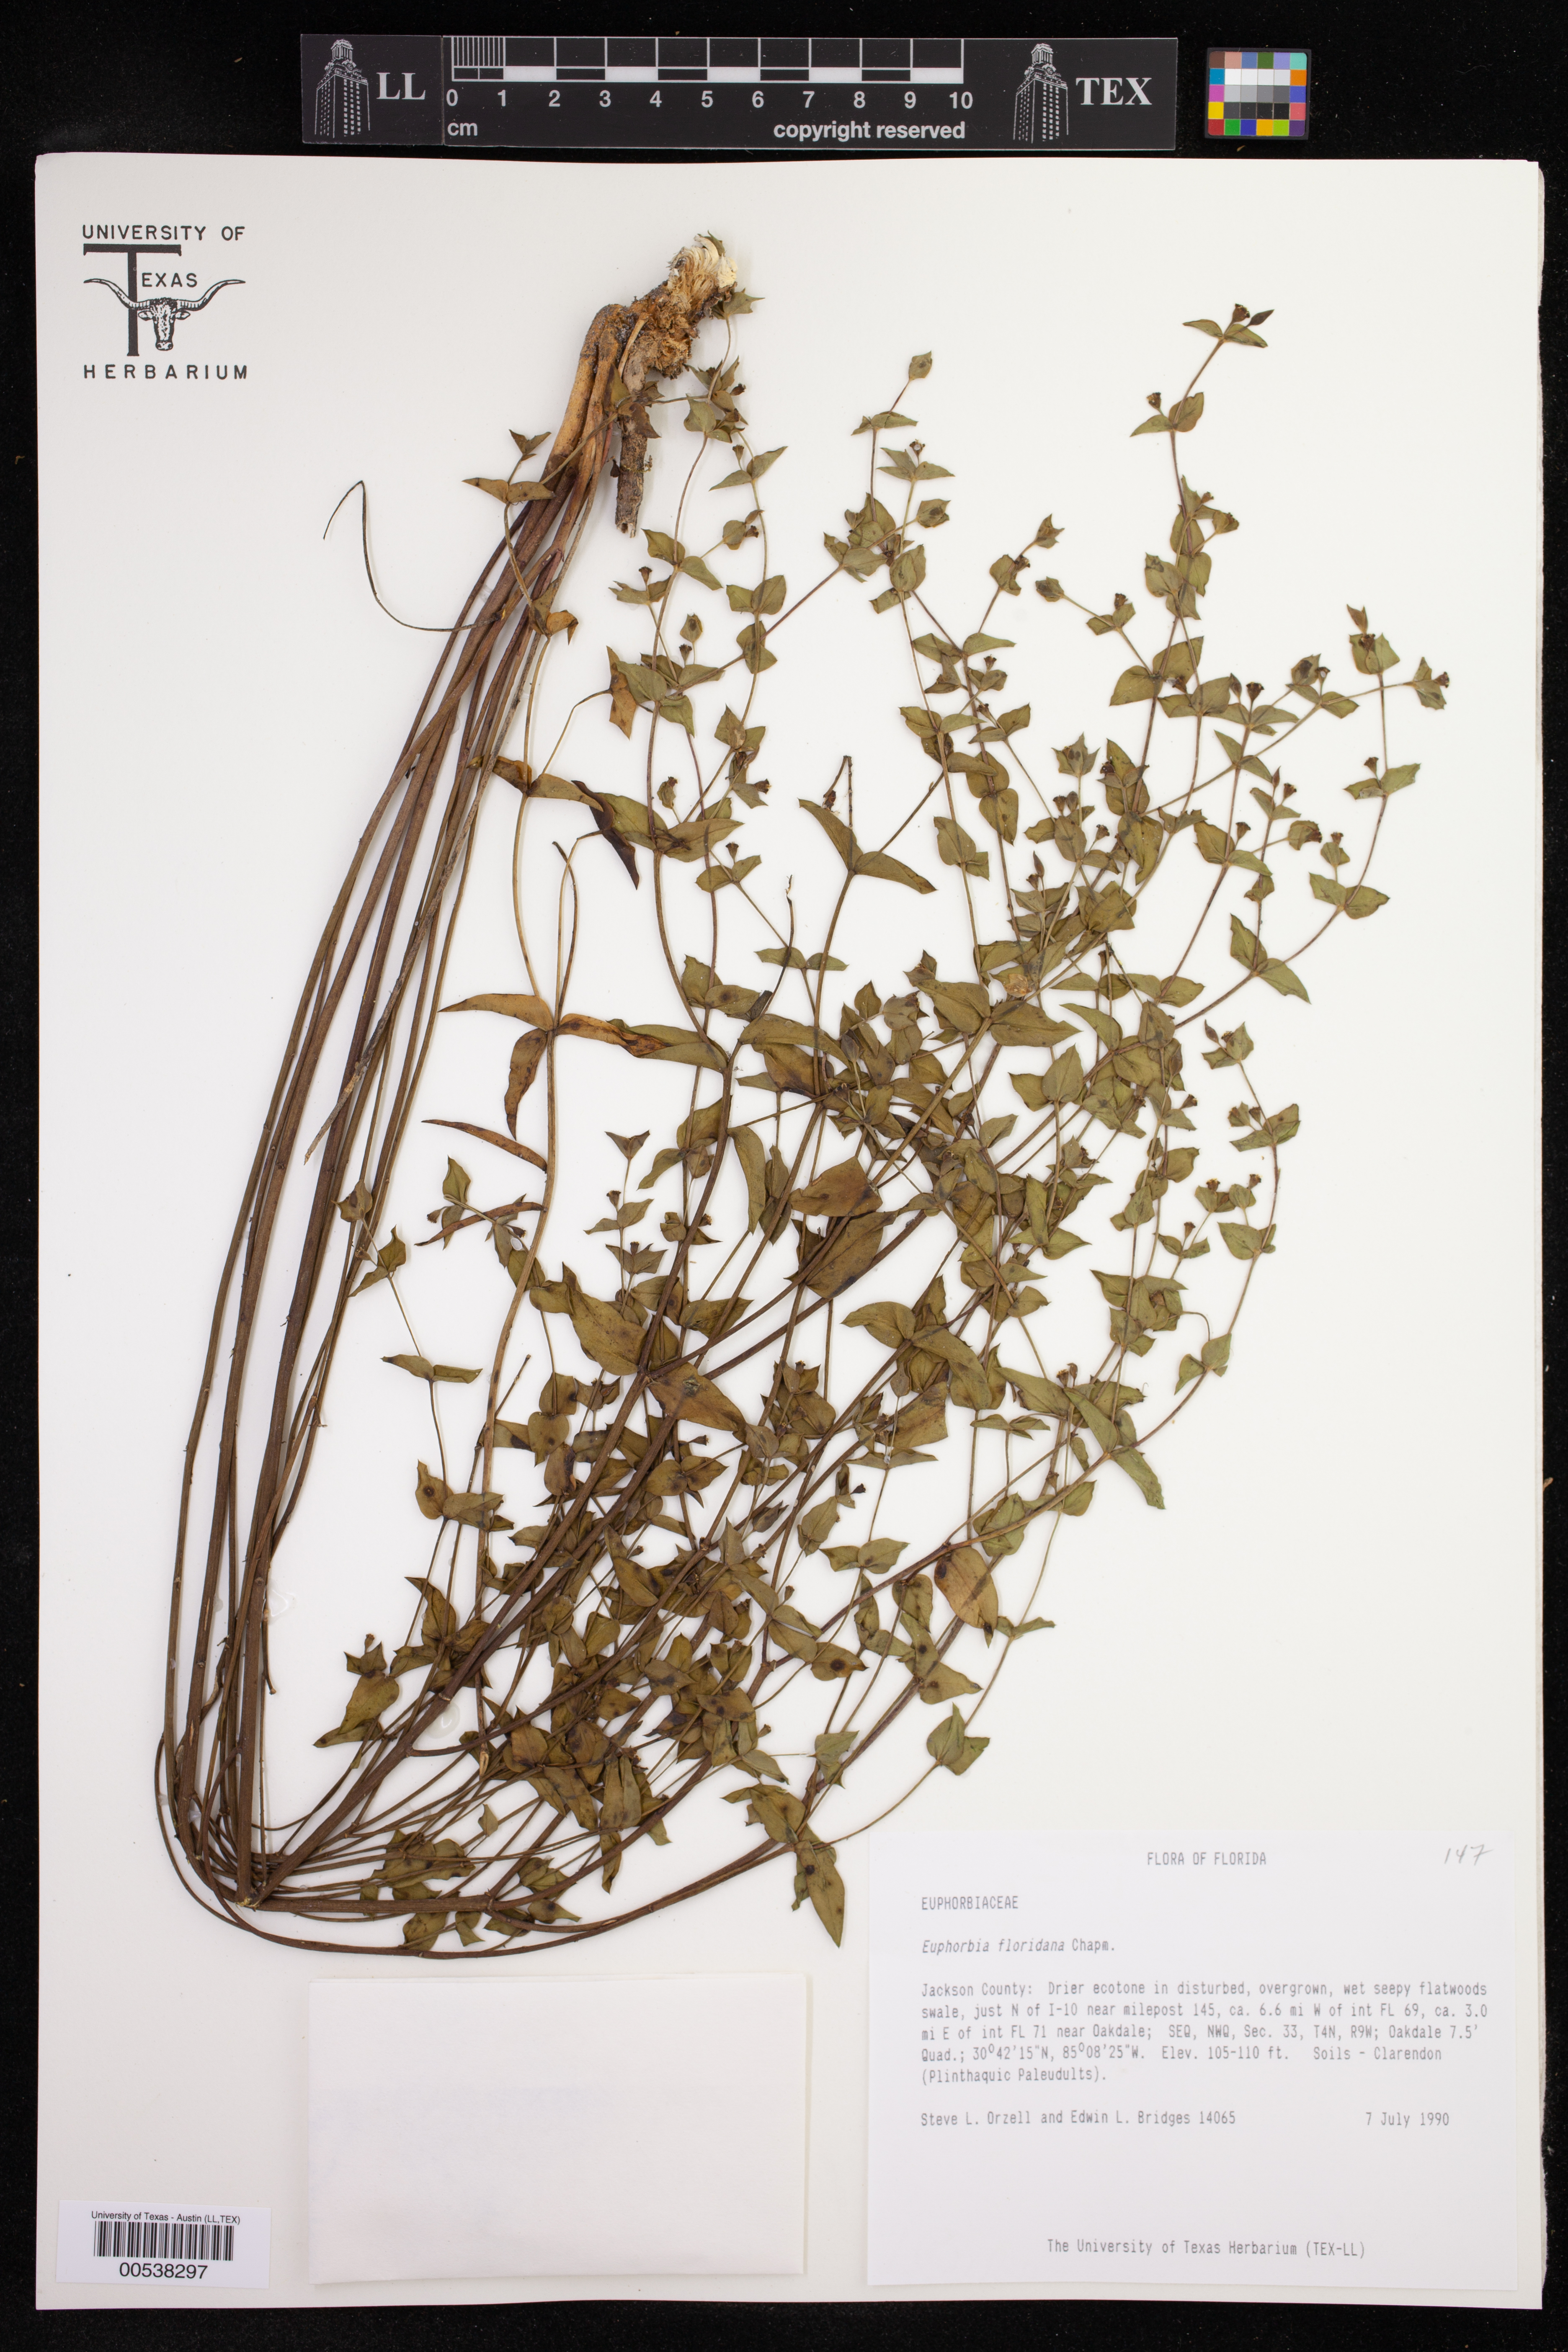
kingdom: Plantae
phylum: Tracheophyta
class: Magnoliopsida
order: Malpighiales
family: Euphorbiaceae
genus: Euphorbia
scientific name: Euphorbia floridana
